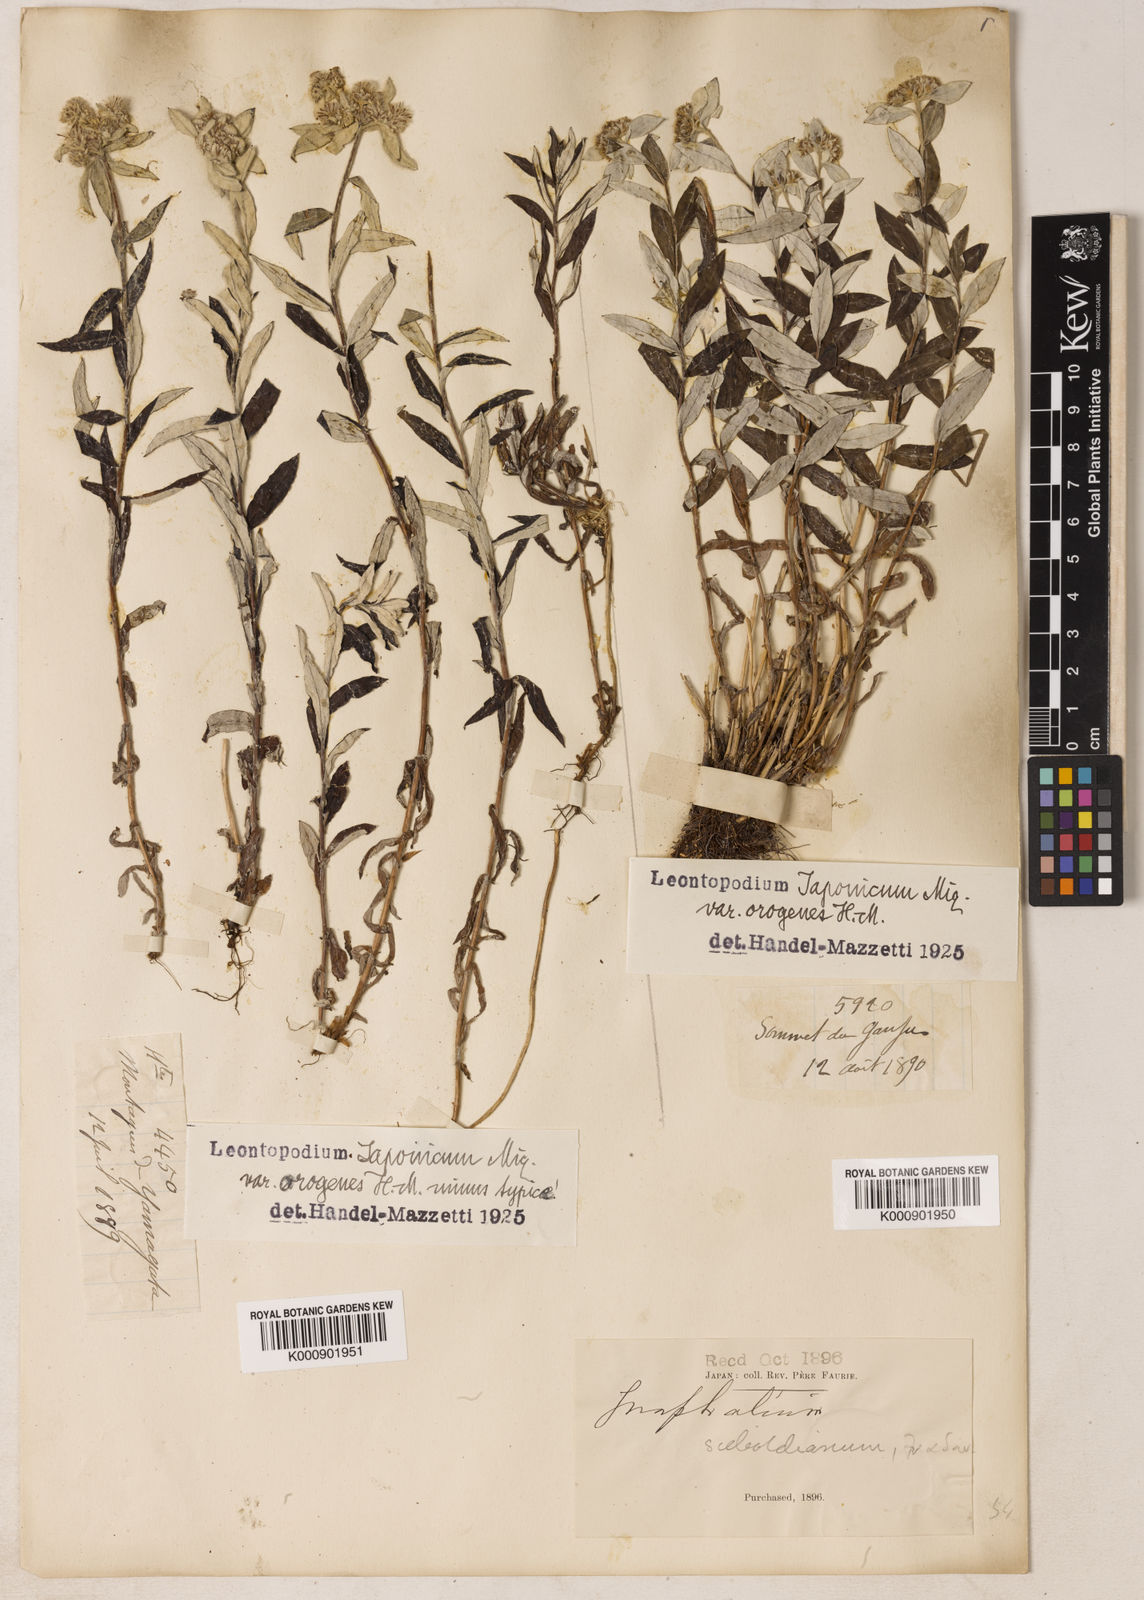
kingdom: Plantae
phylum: Tracheophyta
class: Magnoliopsida
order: Asterales
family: Asteraceae
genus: Leontopodium
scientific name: Leontopodium japonicum
